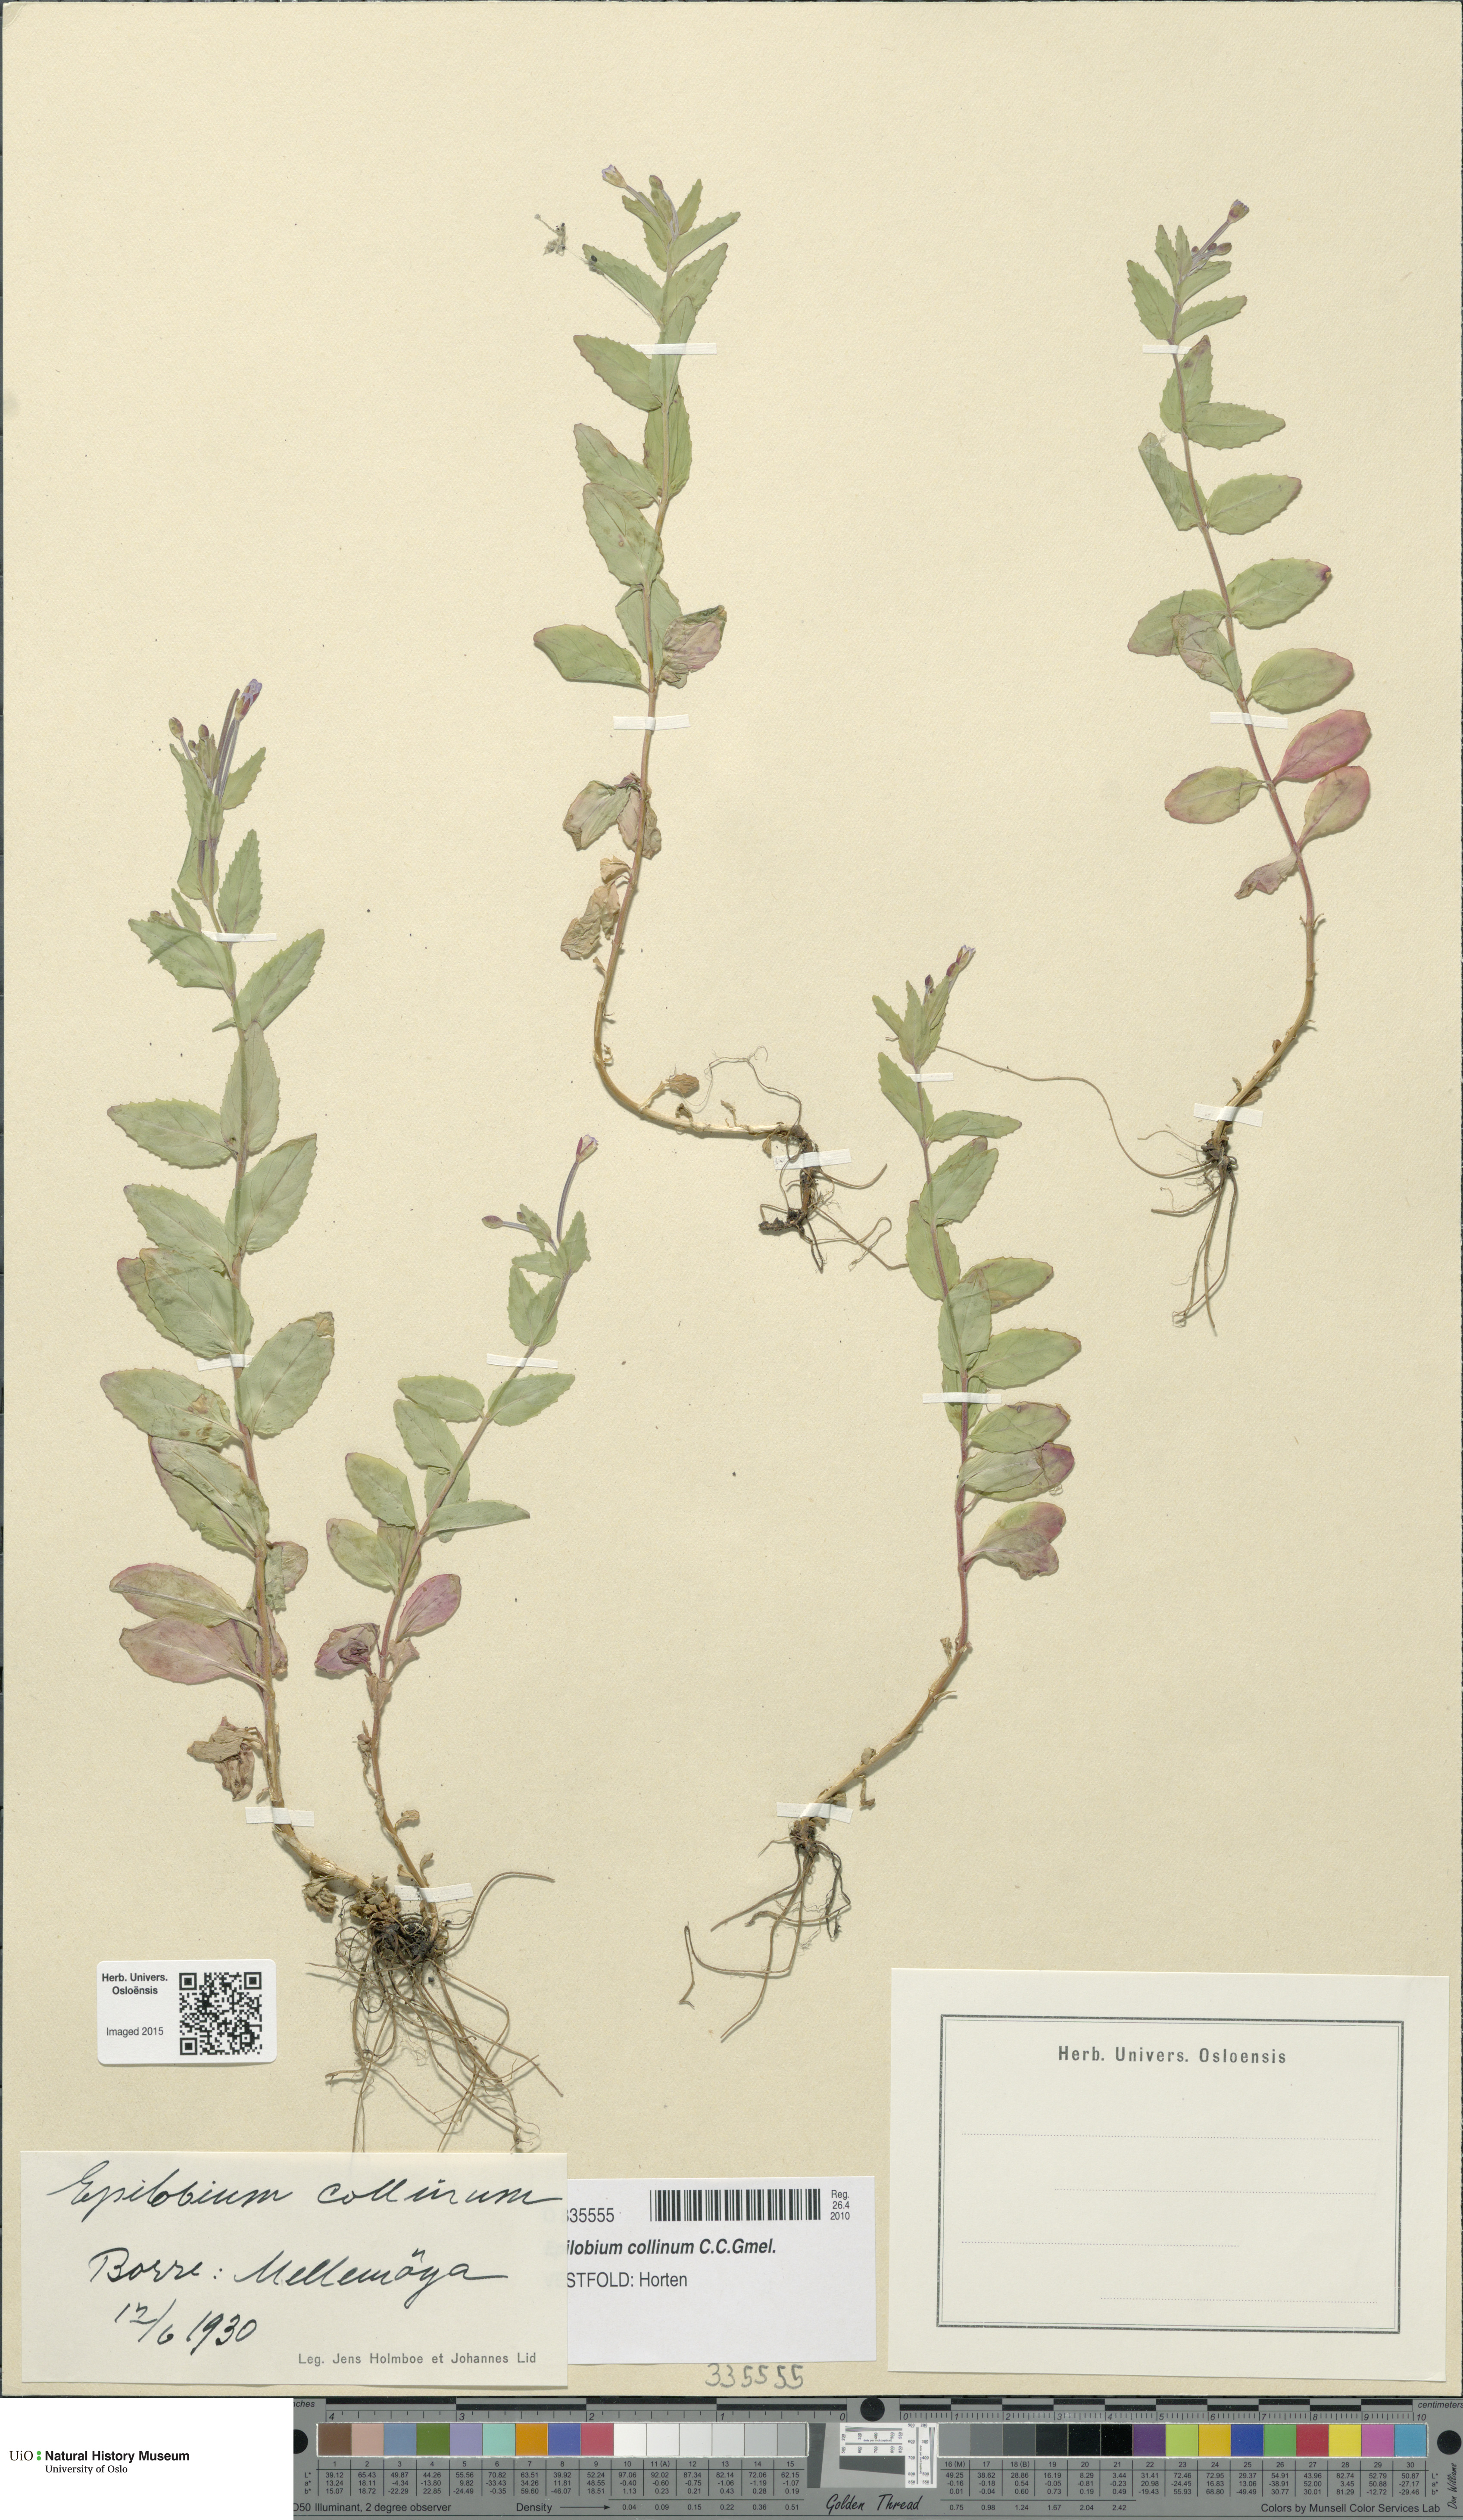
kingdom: Plantae
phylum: Tracheophyta
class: Magnoliopsida
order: Myrtales
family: Onagraceae
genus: Epilobium
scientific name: Epilobium collinum
